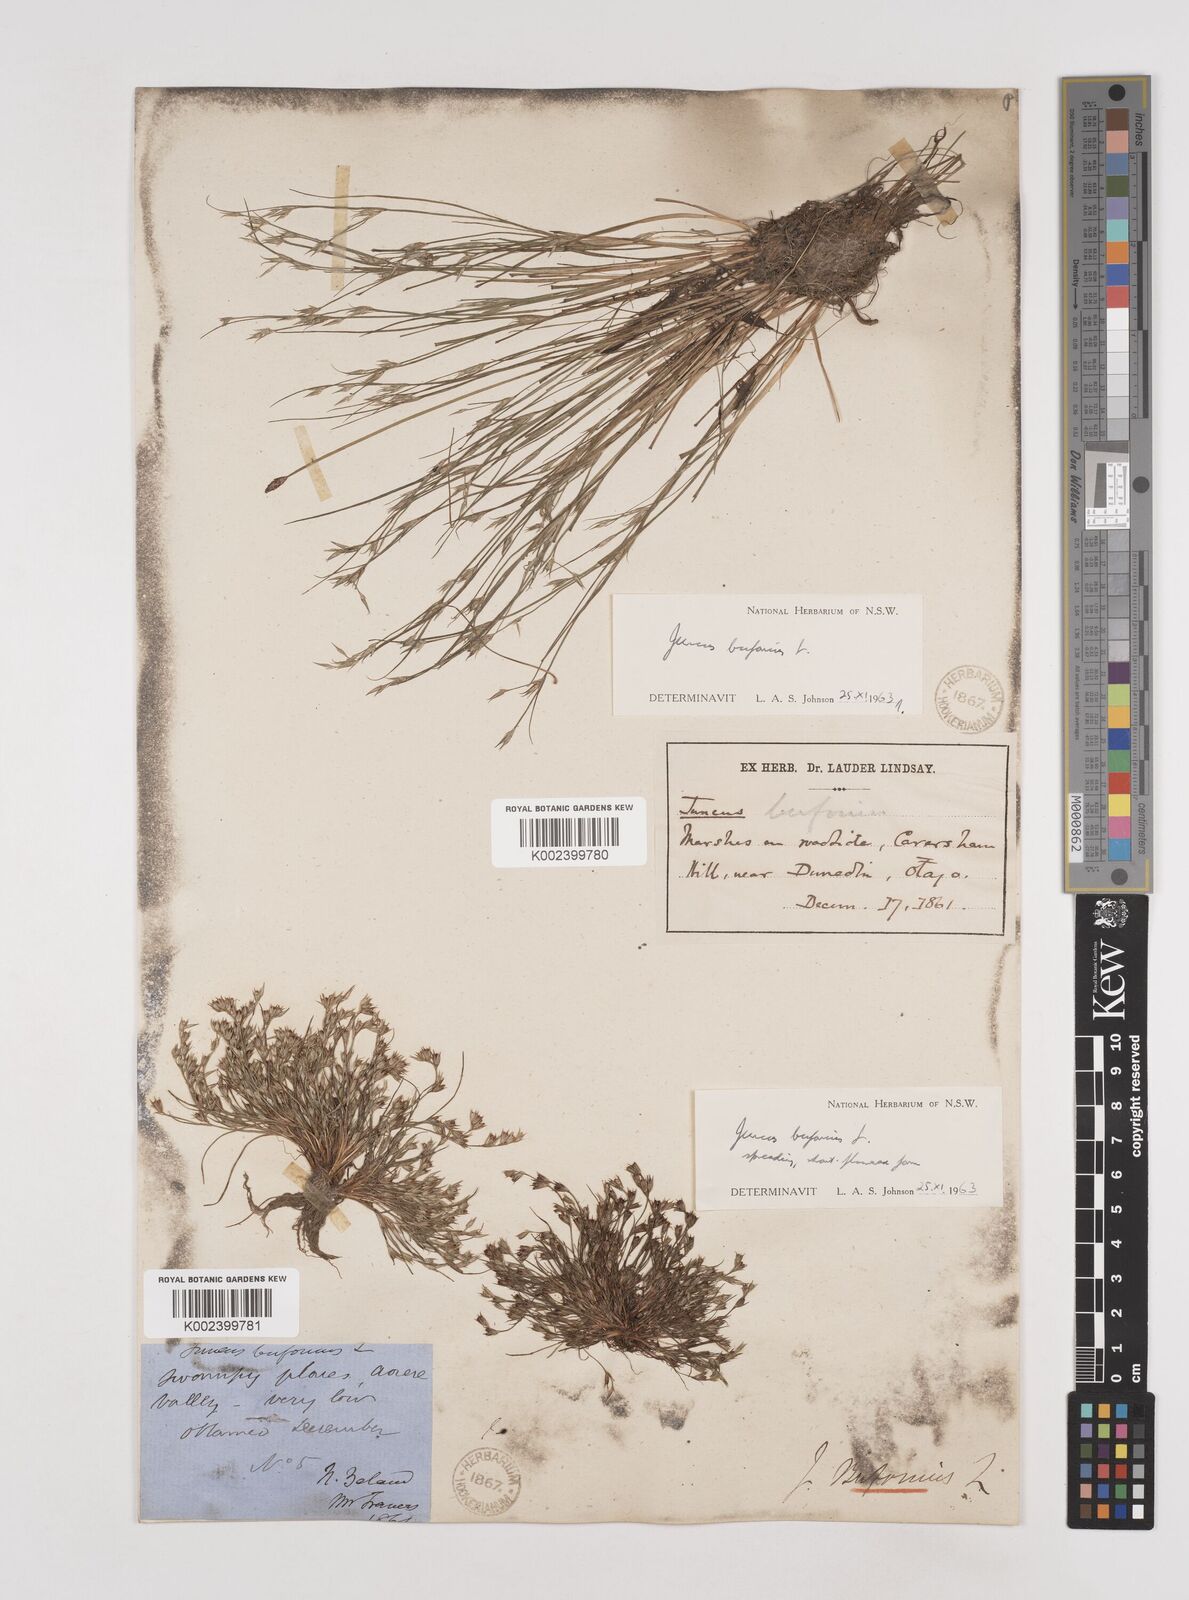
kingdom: Plantae
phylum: Tracheophyta
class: Liliopsida
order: Poales
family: Juncaceae
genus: Juncus
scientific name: Juncus bufonius
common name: Toad rush
